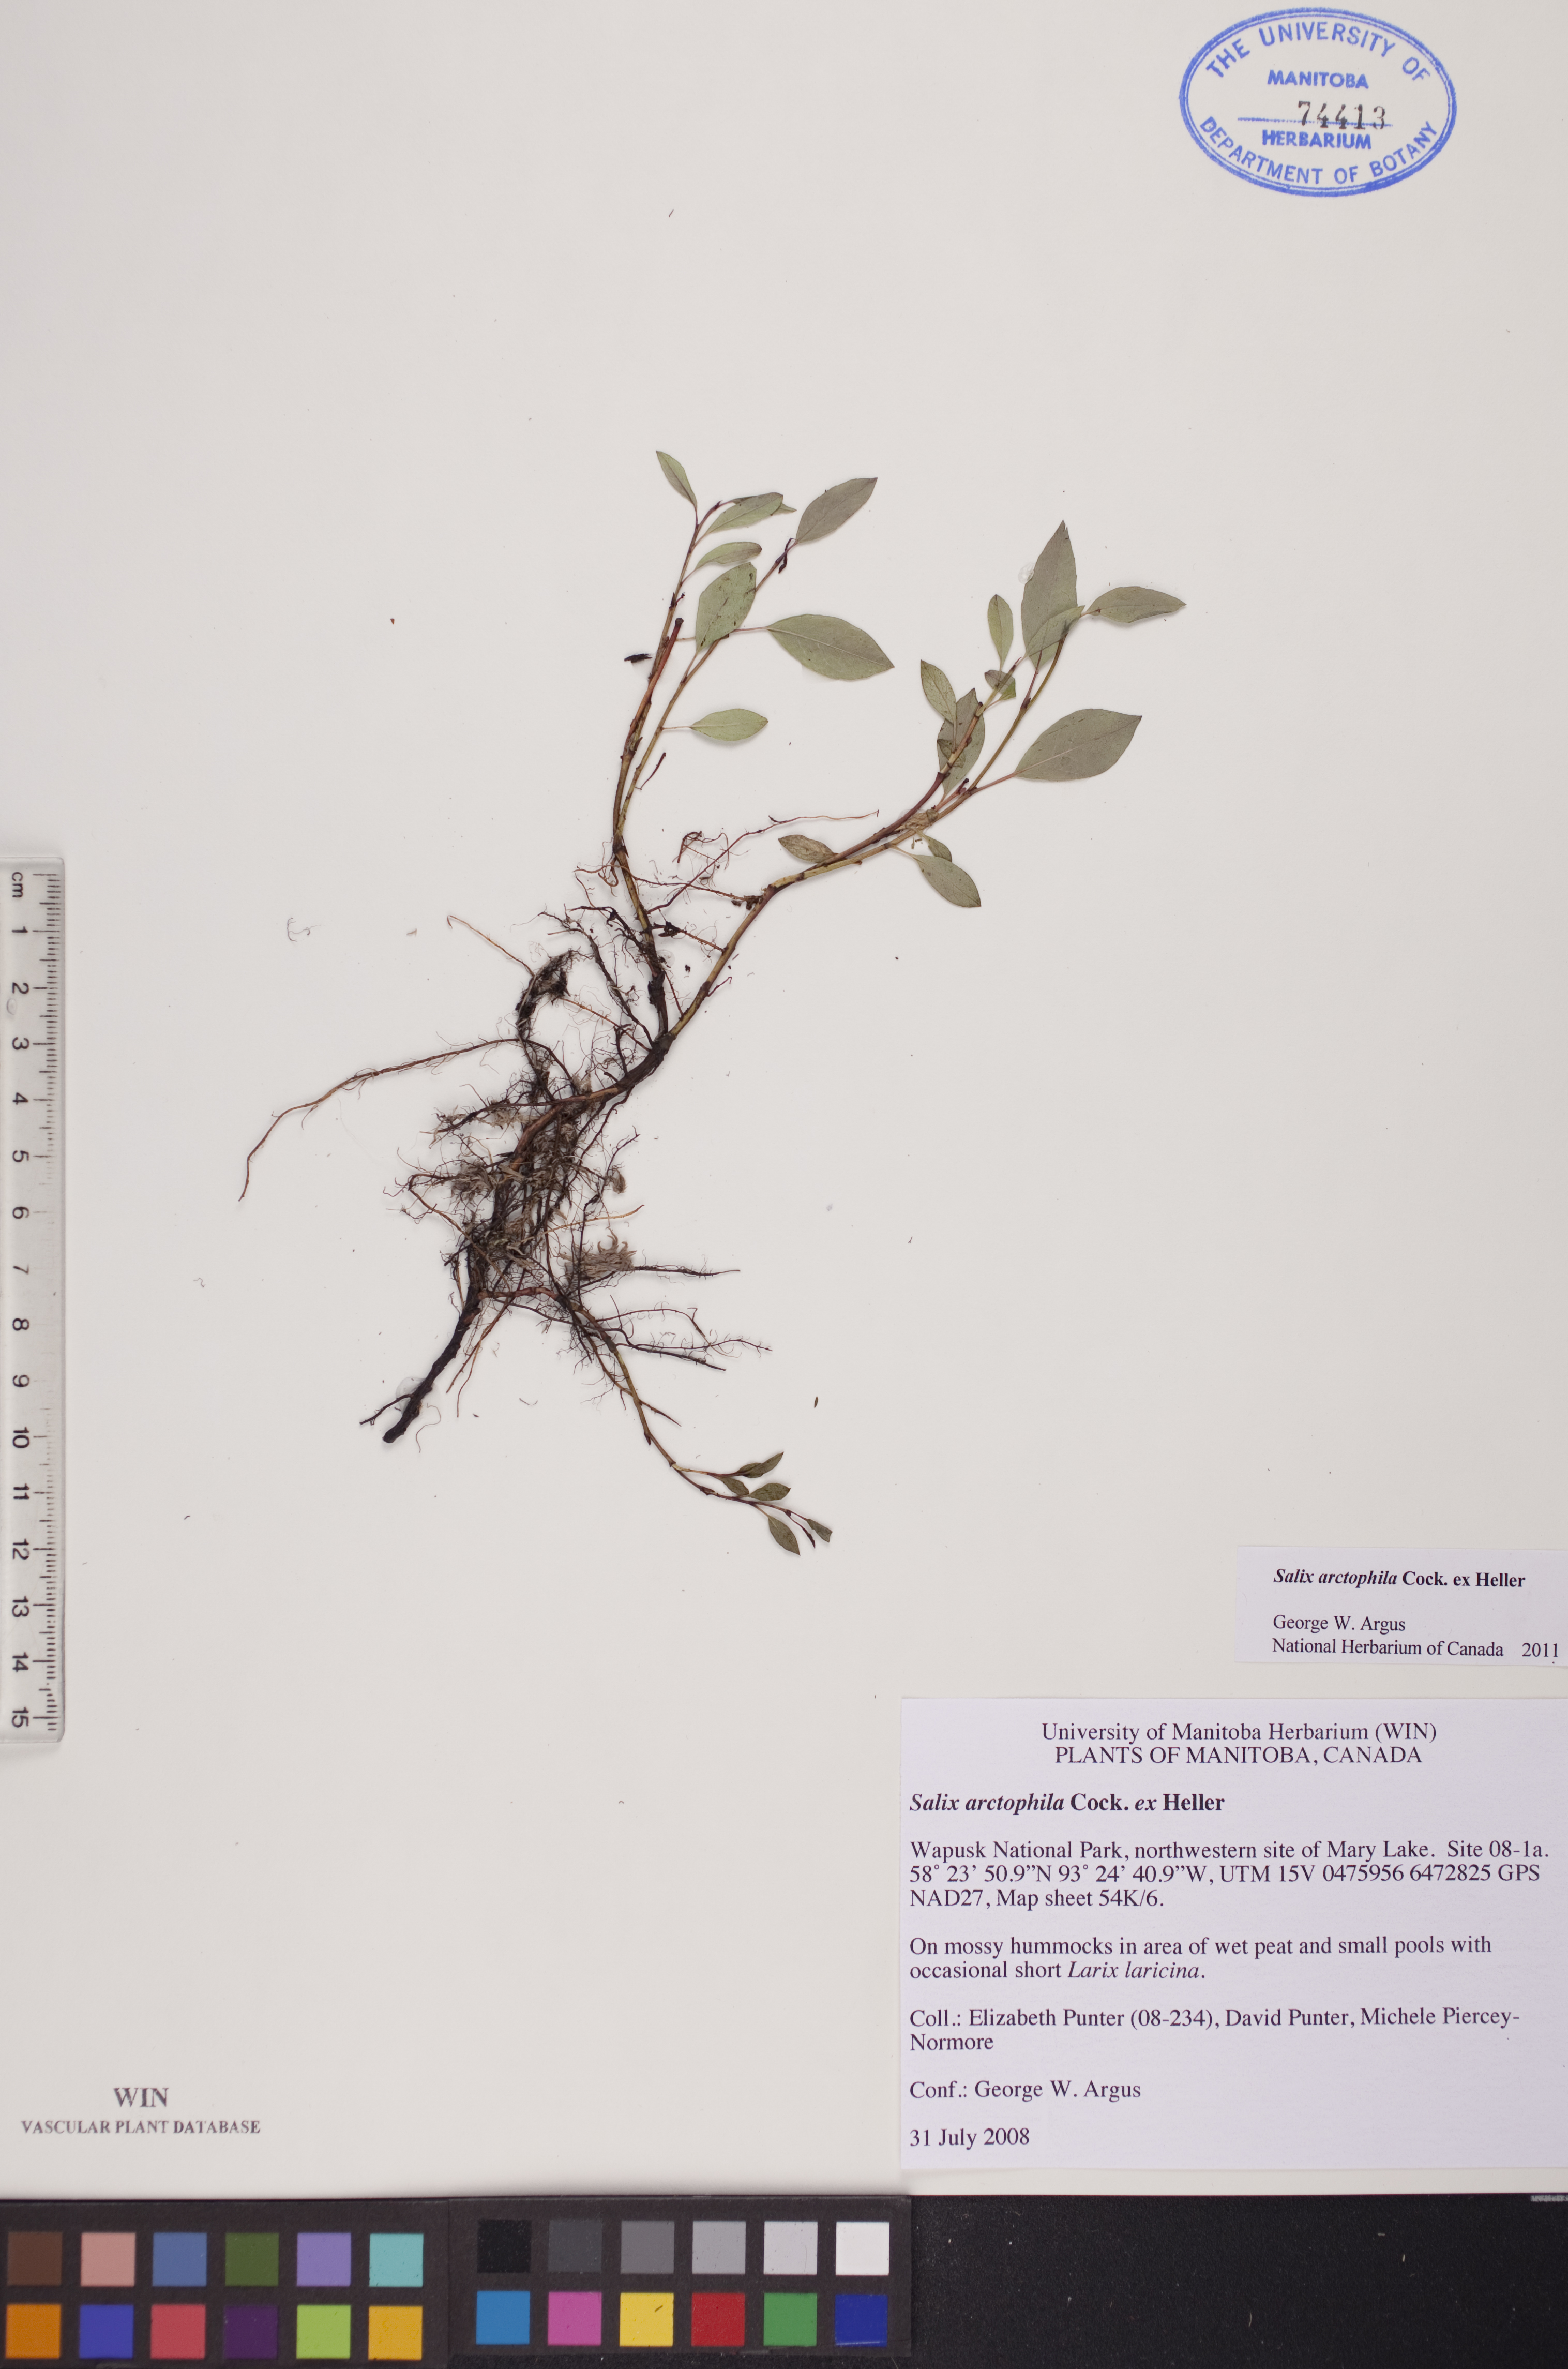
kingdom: Plantae
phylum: Tracheophyta
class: Magnoliopsida
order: Malpighiales
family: Salicaceae
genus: Salix
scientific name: Salix arctophila
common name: Greenland willow
